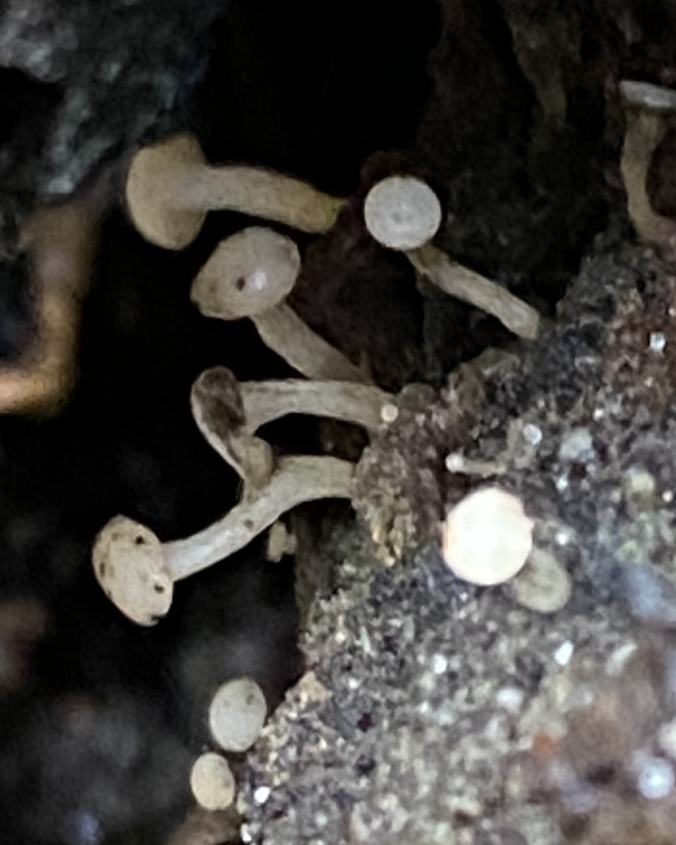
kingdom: Fungi
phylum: Ascomycota
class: Leotiomycetes
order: Helotiales
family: Tricladiaceae
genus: Cudoniella
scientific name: Cudoniella acicularis
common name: ege-dyndskive
